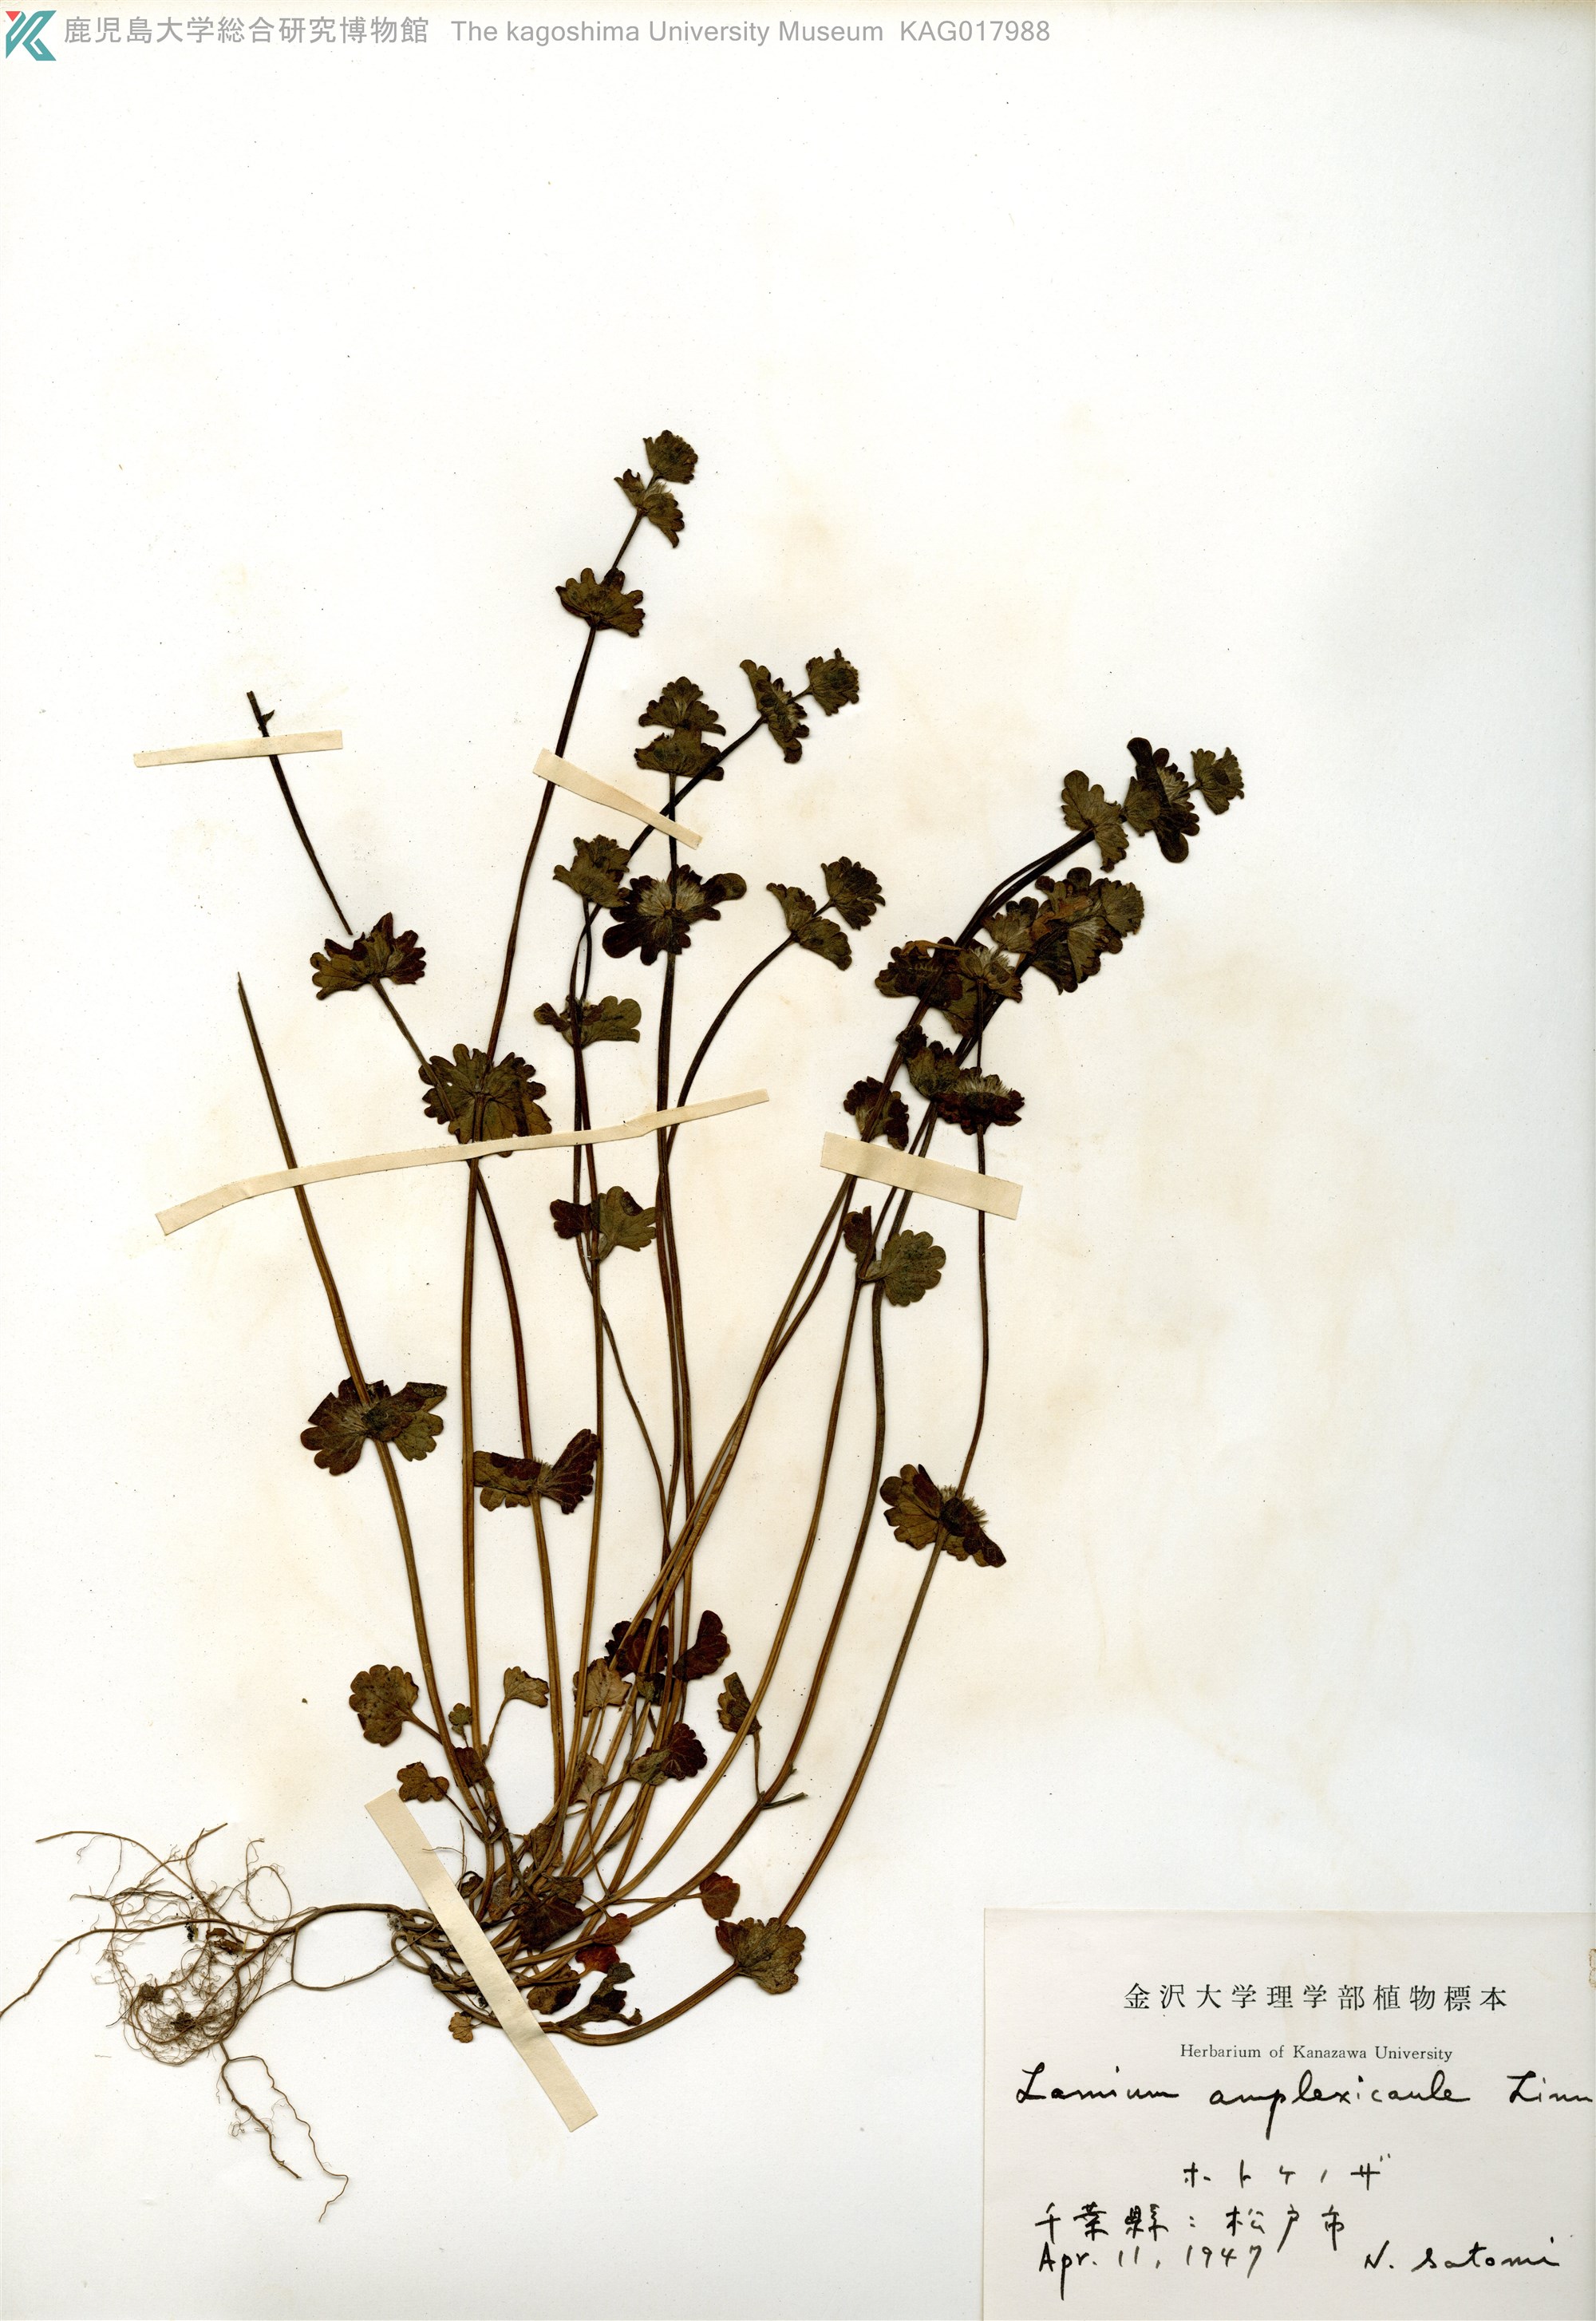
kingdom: Plantae
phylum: Tracheophyta
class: Magnoliopsida
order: Lamiales
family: Lamiaceae
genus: Lamium
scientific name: Lamium amplexicaule
